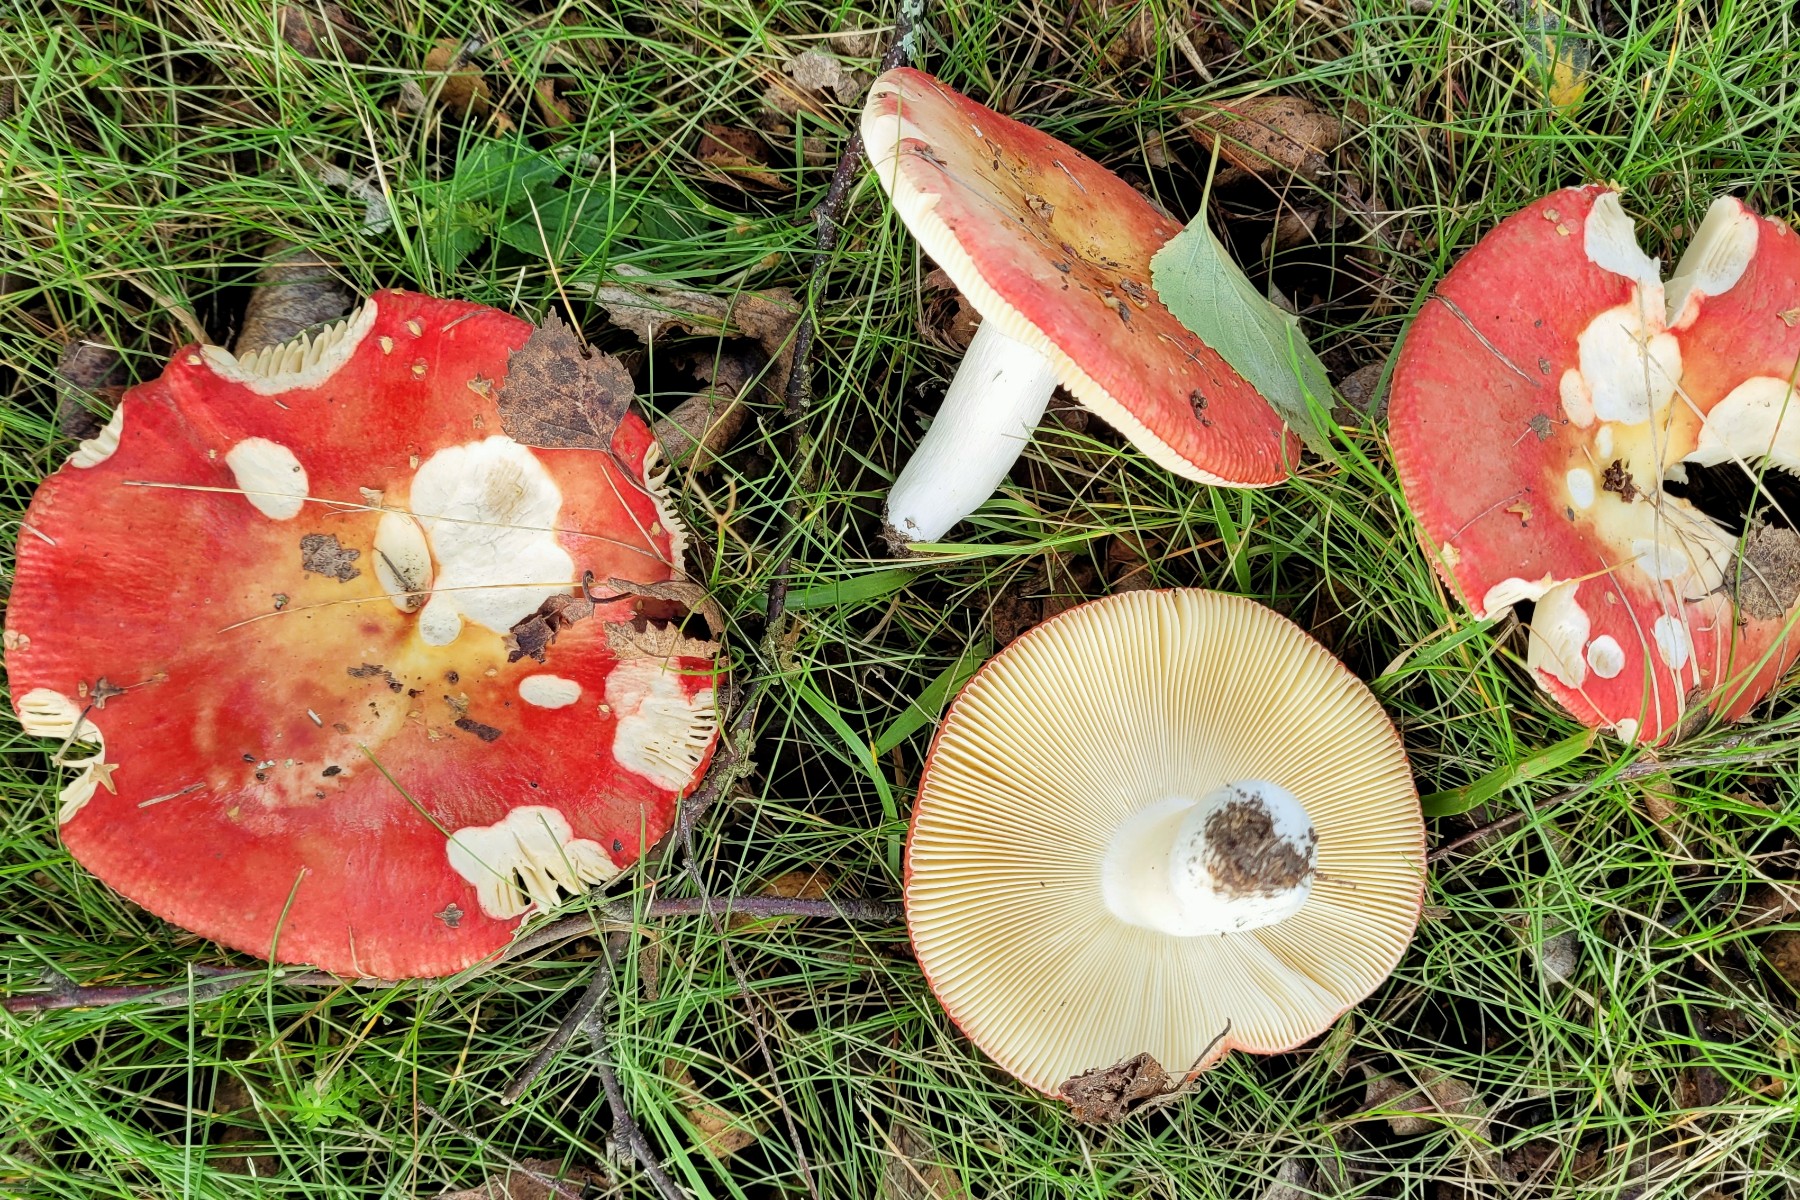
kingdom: Fungi
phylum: Basidiomycota
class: Agaricomycetes
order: Russulales
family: Russulaceae
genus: Russula
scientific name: Russula intermedia
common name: orange skørhat
